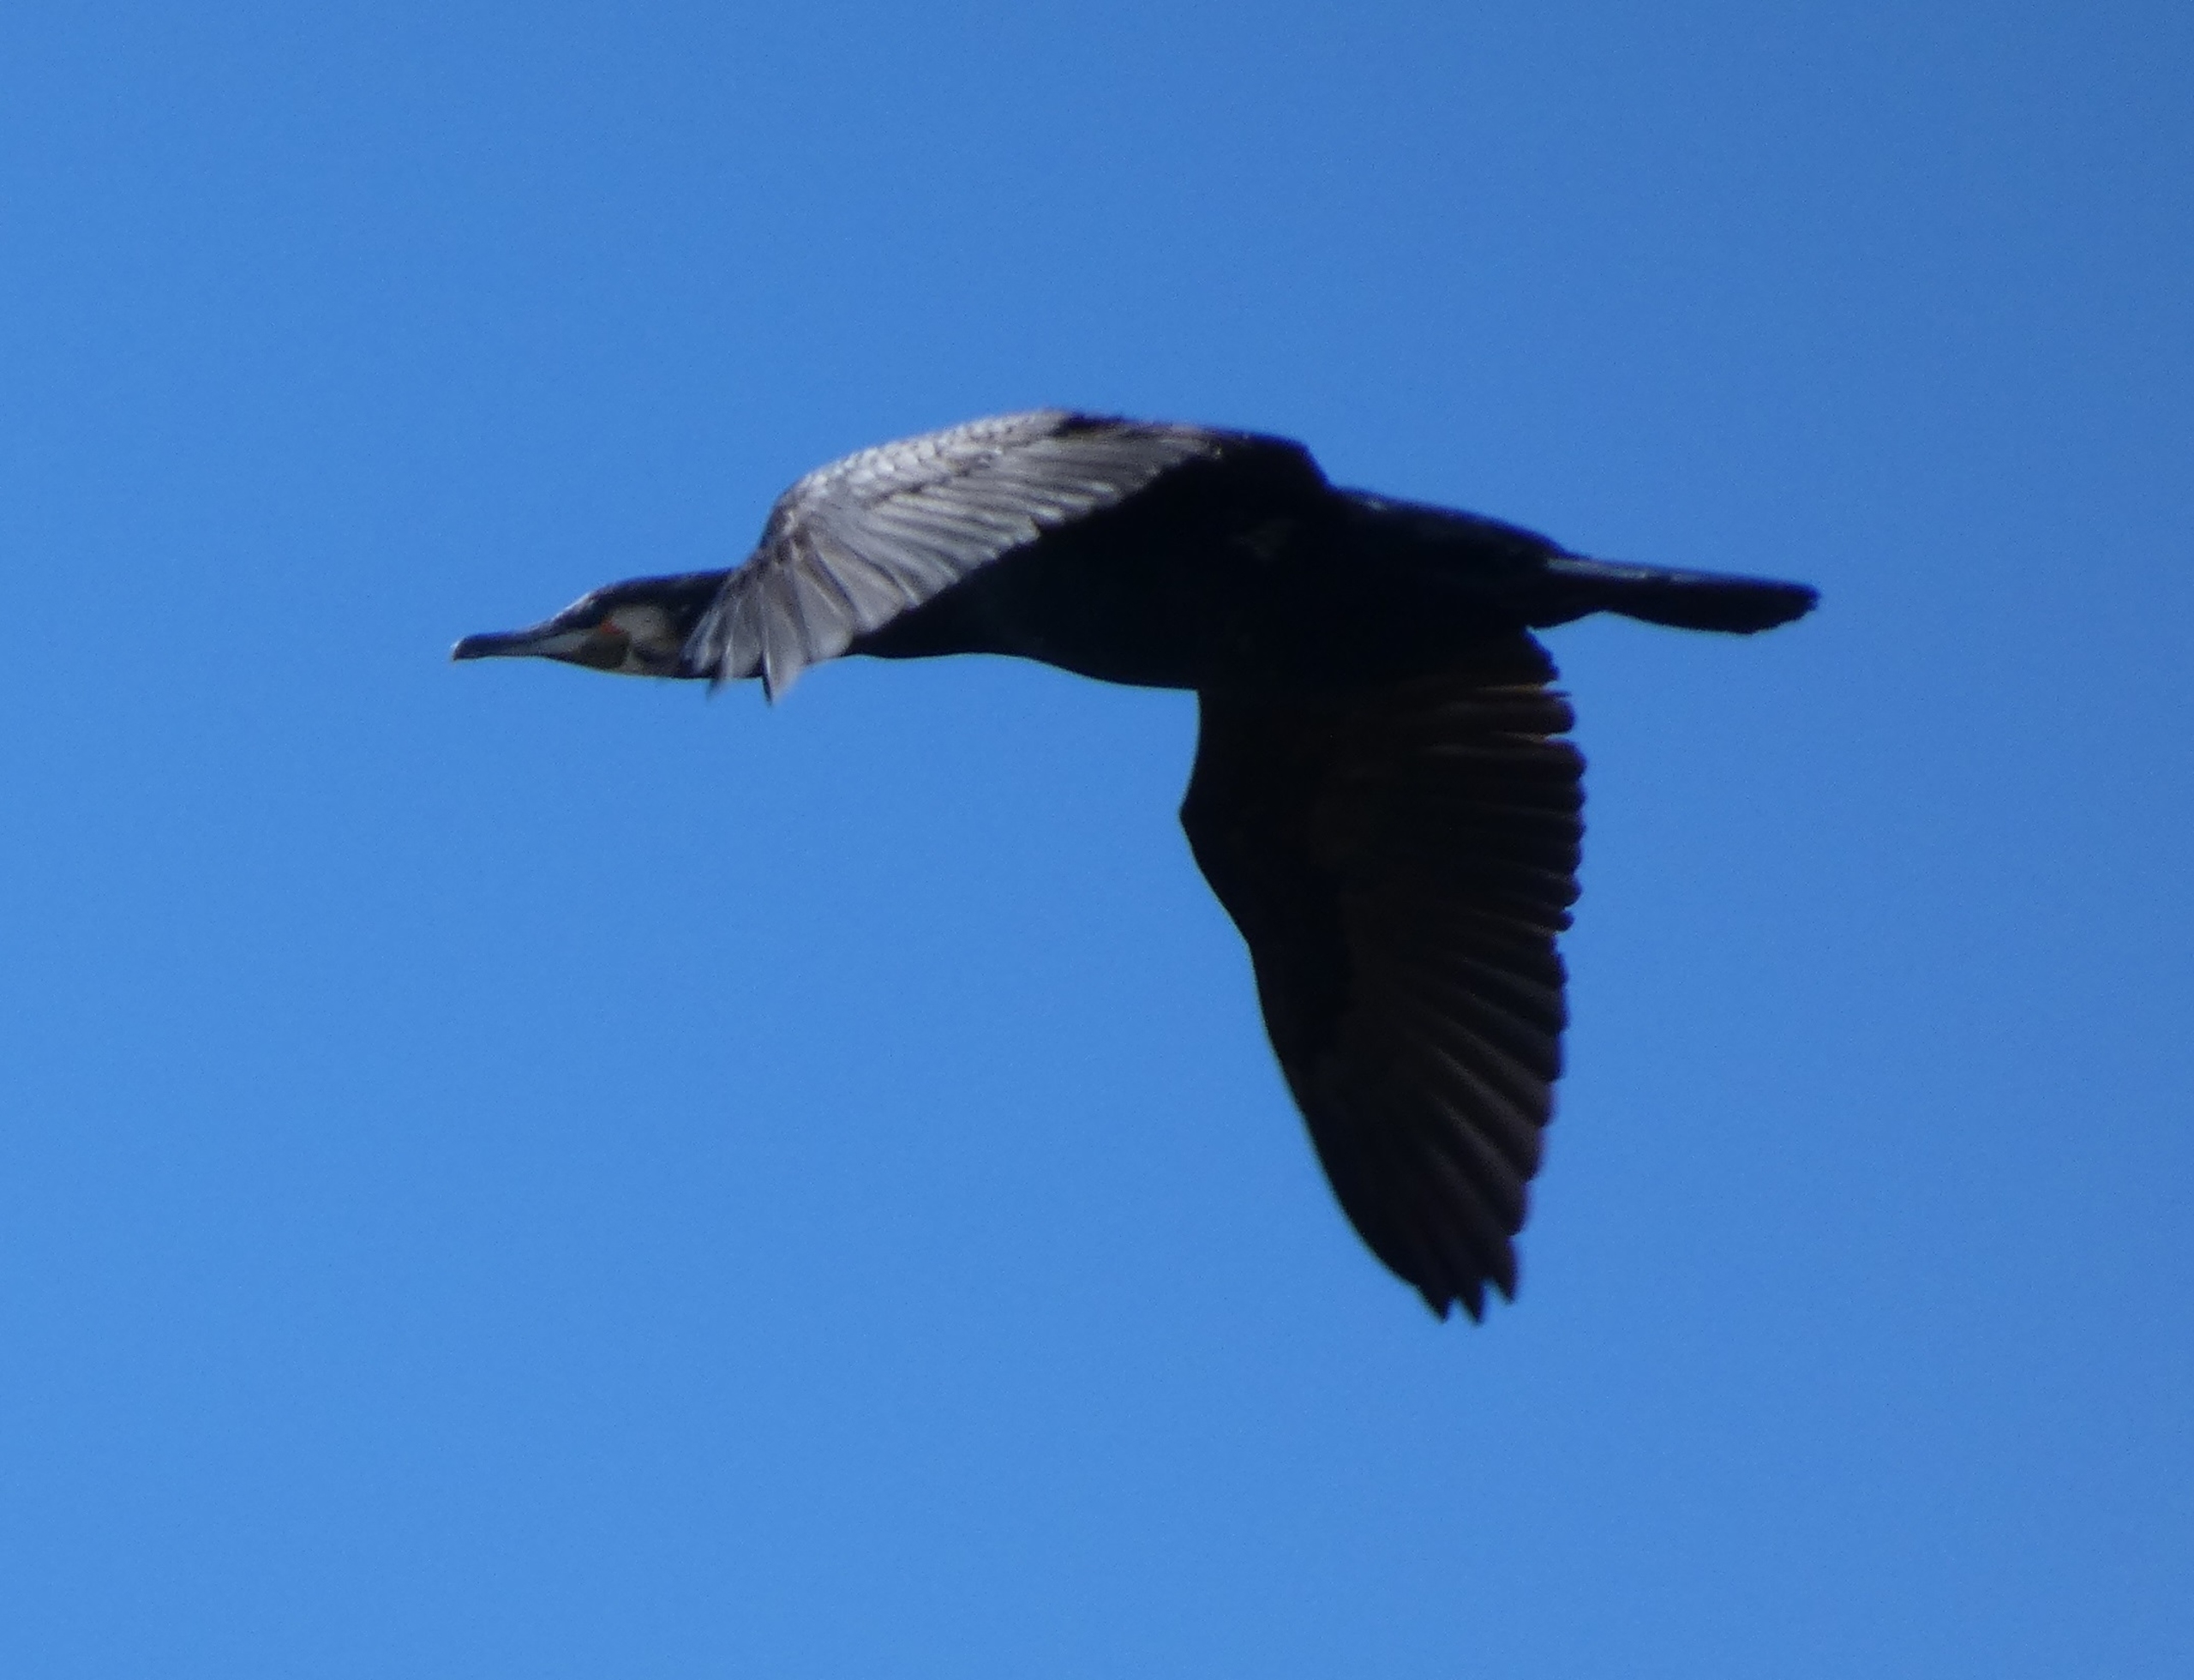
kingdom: Animalia
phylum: Chordata
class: Aves
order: Suliformes
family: Phalacrocoracidae
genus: Phalacrocorax
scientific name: Phalacrocorax carbo
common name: Skarv
